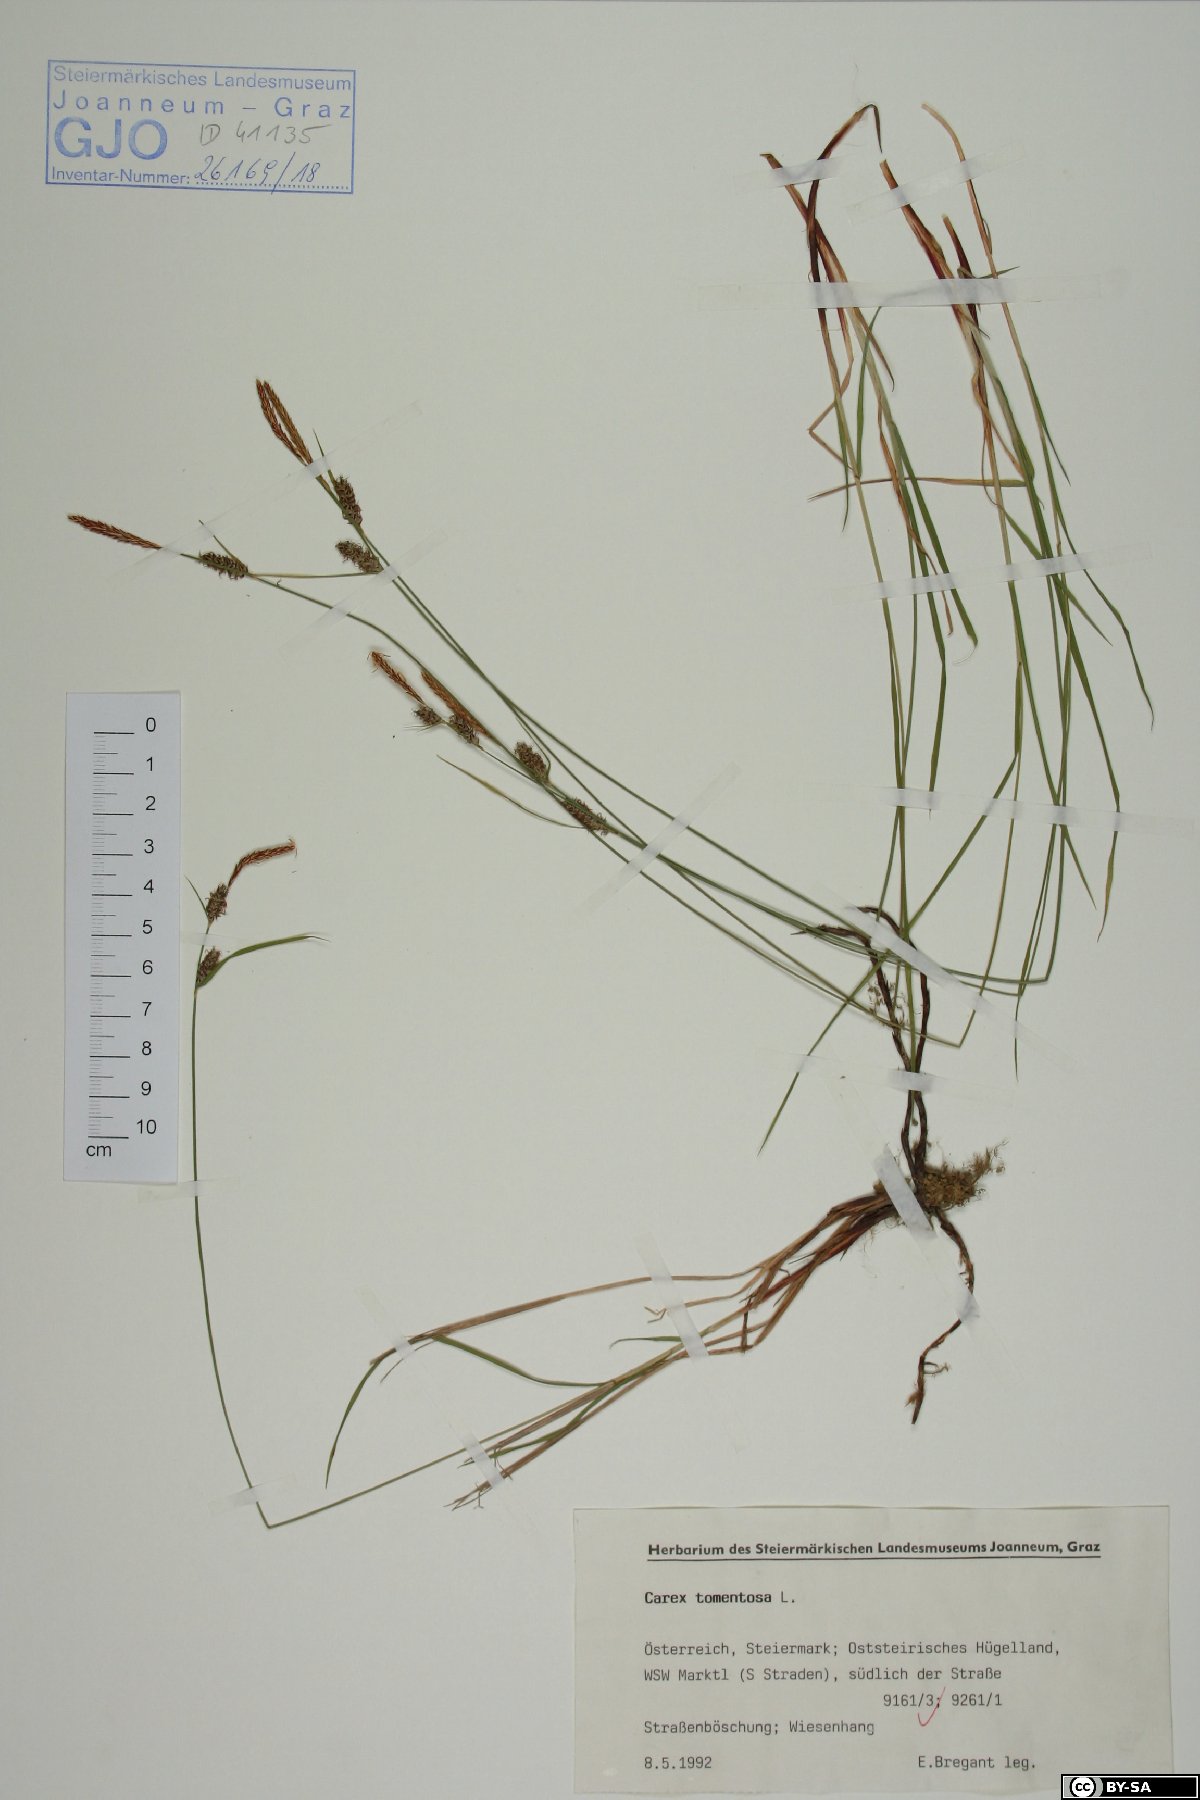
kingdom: Plantae
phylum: Tracheophyta
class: Liliopsida
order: Poales
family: Cyperaceae
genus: Carex
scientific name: Carex tomentosa
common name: Downy-fruited sedge
